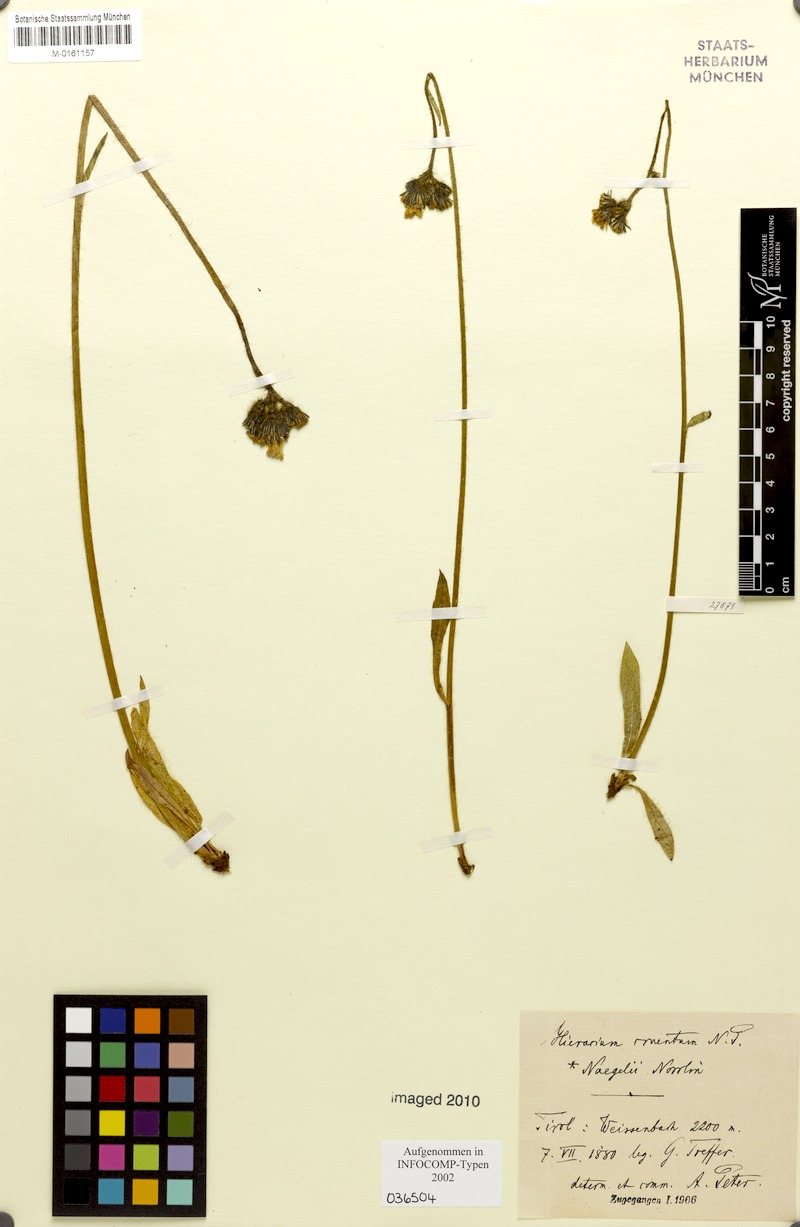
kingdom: Plantae
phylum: Tracheophyta
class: Magnoliopsida
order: Asterales
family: Asteraceae
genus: Pilosella
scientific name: Pilosella guthnikiana
